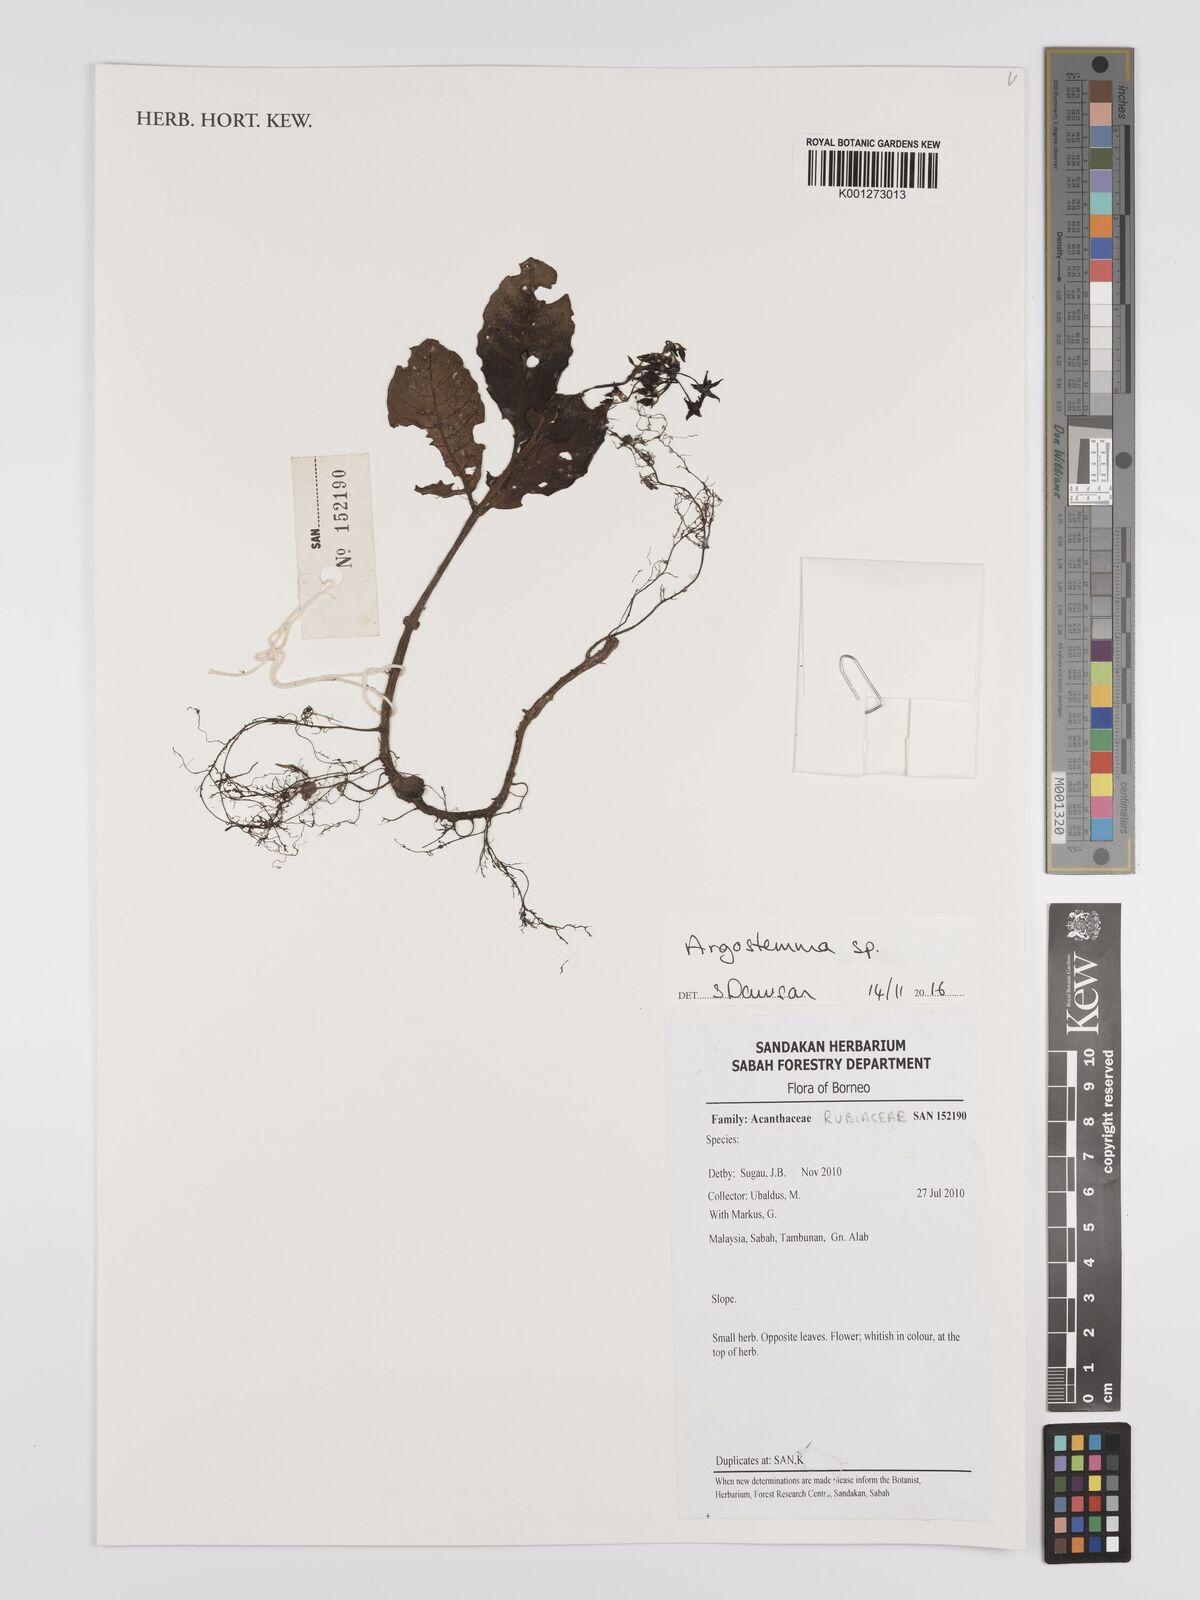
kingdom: Plantae
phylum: Tracheophyta
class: Magnoliopsida
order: Gentianales
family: Rubiaceae
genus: Argostemma
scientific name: Argostemma
